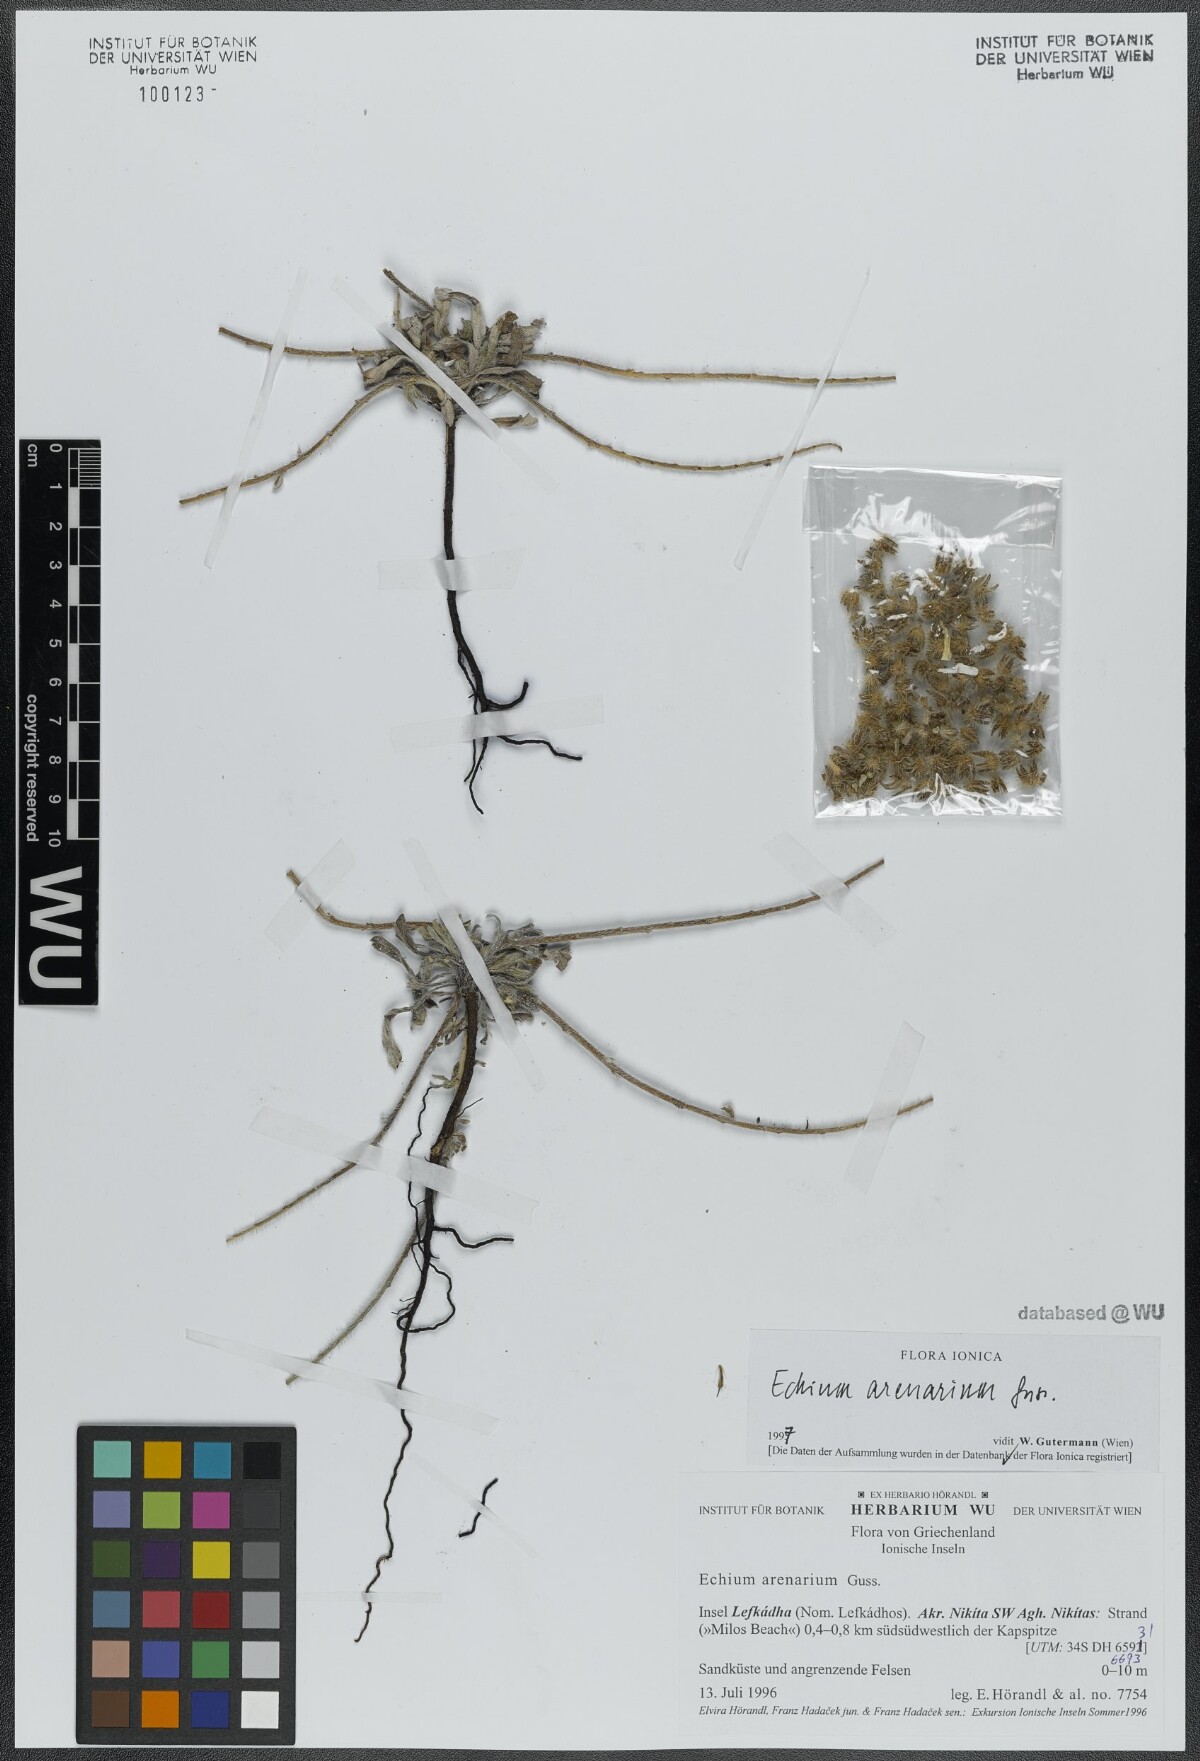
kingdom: Plantae
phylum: Tracheophyta
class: Magnoliopsida
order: Boraginales
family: Boraginaceae
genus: Echium
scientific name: Echium arenarium
